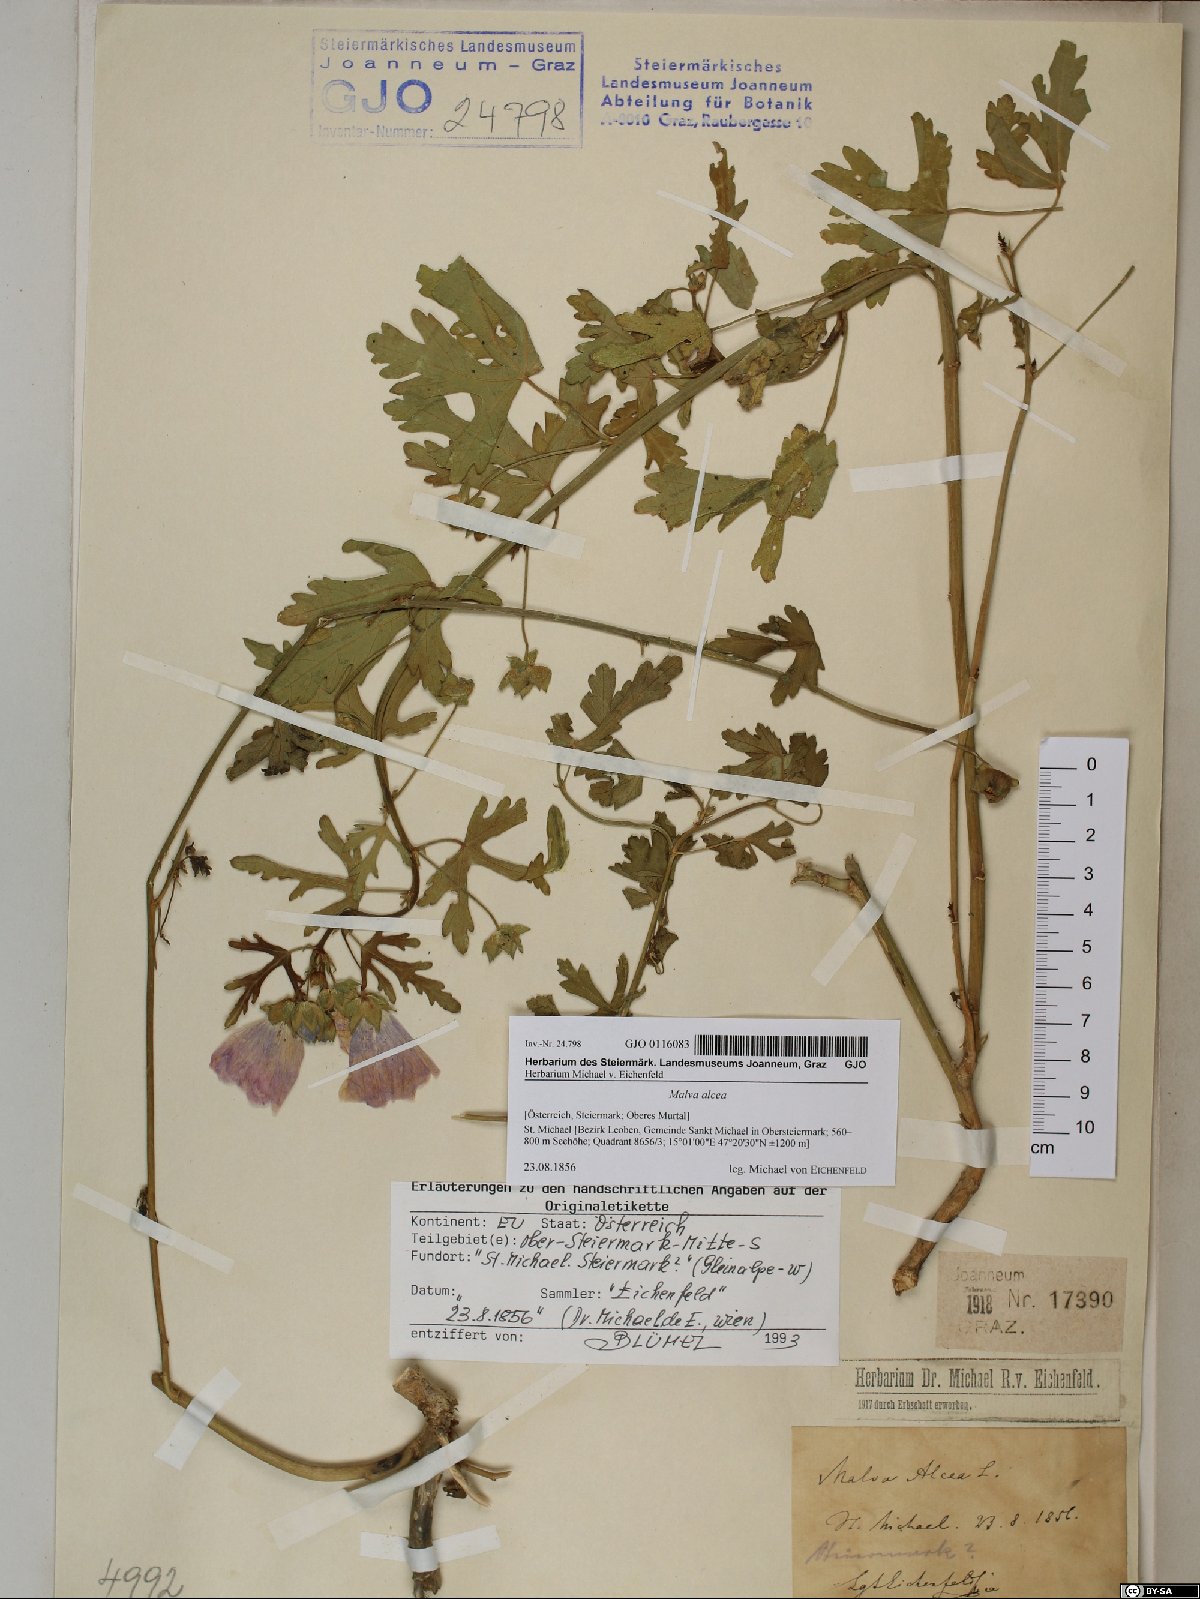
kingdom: Plantae
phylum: Tracheophyta
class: Magnoliopsida
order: Malvales
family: Malvaceae
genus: Malva
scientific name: Malva alcea
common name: Greater musk-mallow
